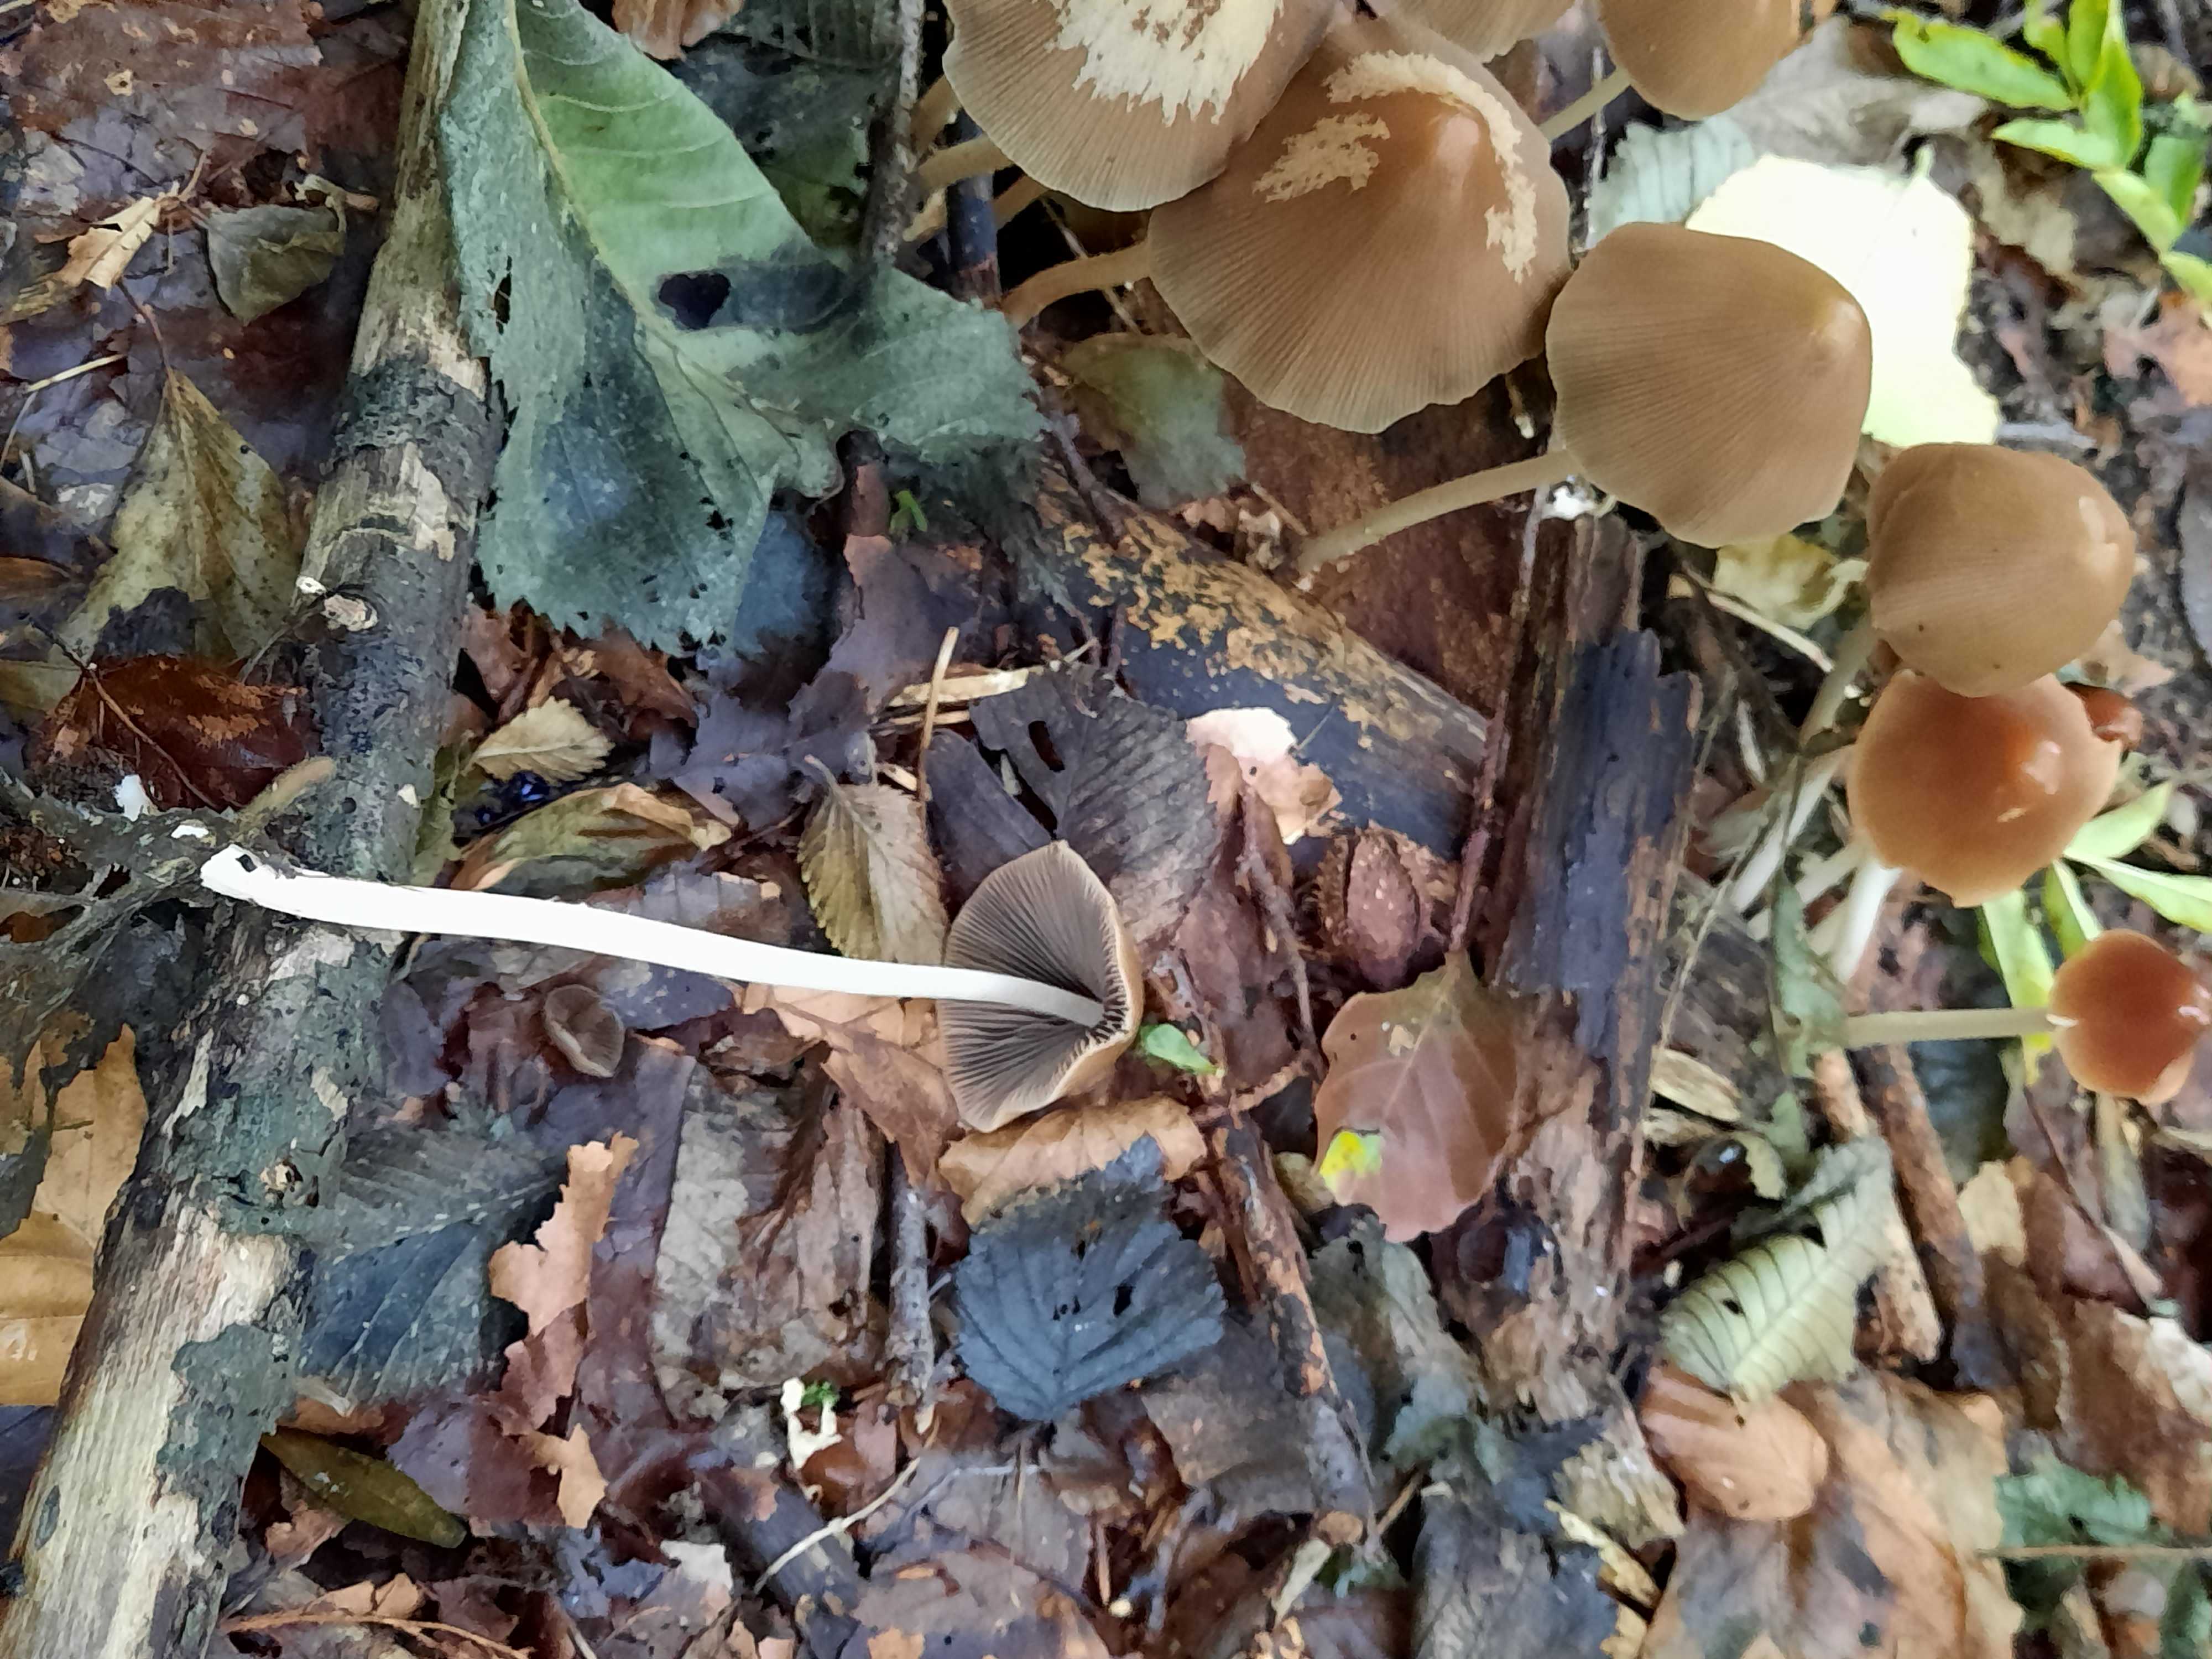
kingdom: Fungi
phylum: Basidiomycota
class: Agaricomycetes
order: Agaricales
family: Psathyrellaceae
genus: Parasola
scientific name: Parasola conopilea
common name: kegle-hjulhat
